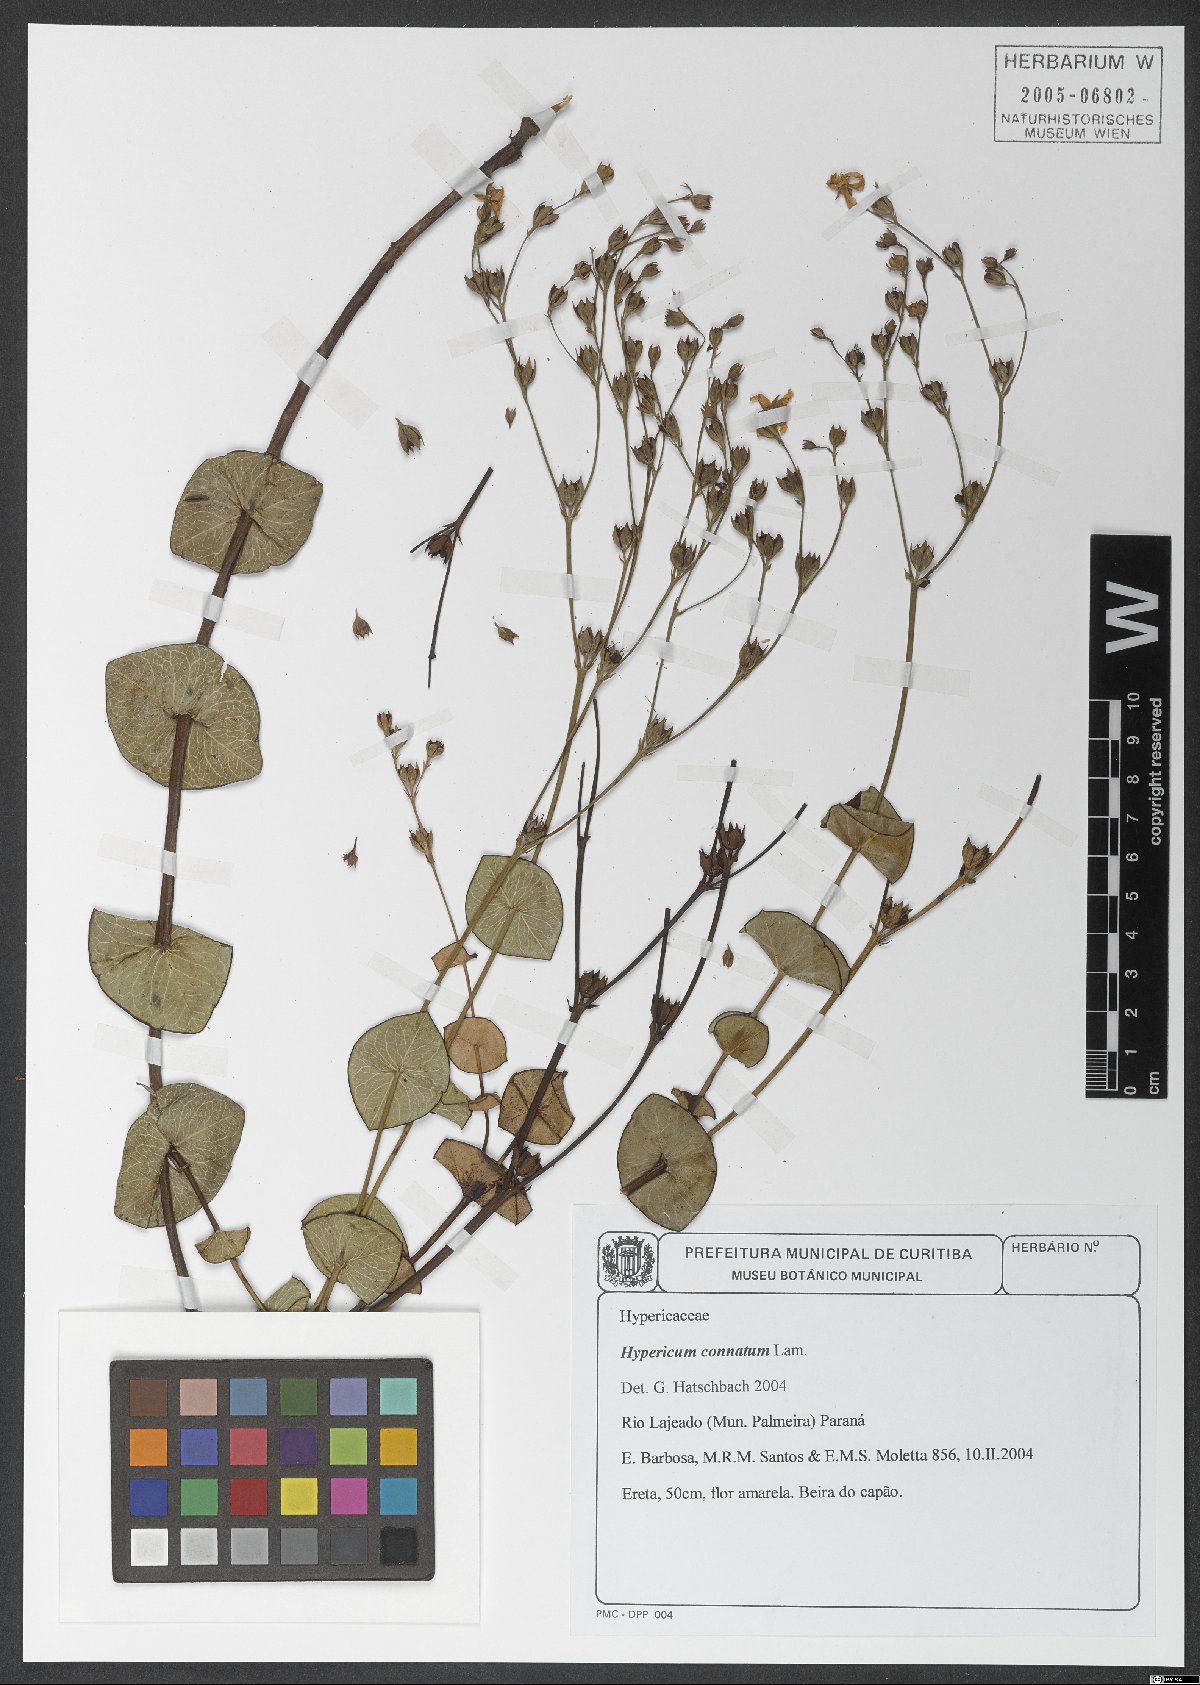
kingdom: Plantae
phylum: Tracheophyta
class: Magnoliopsida
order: Malpighiales
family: Hypericaceae
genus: Hypericum
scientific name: Hypericum connatum
